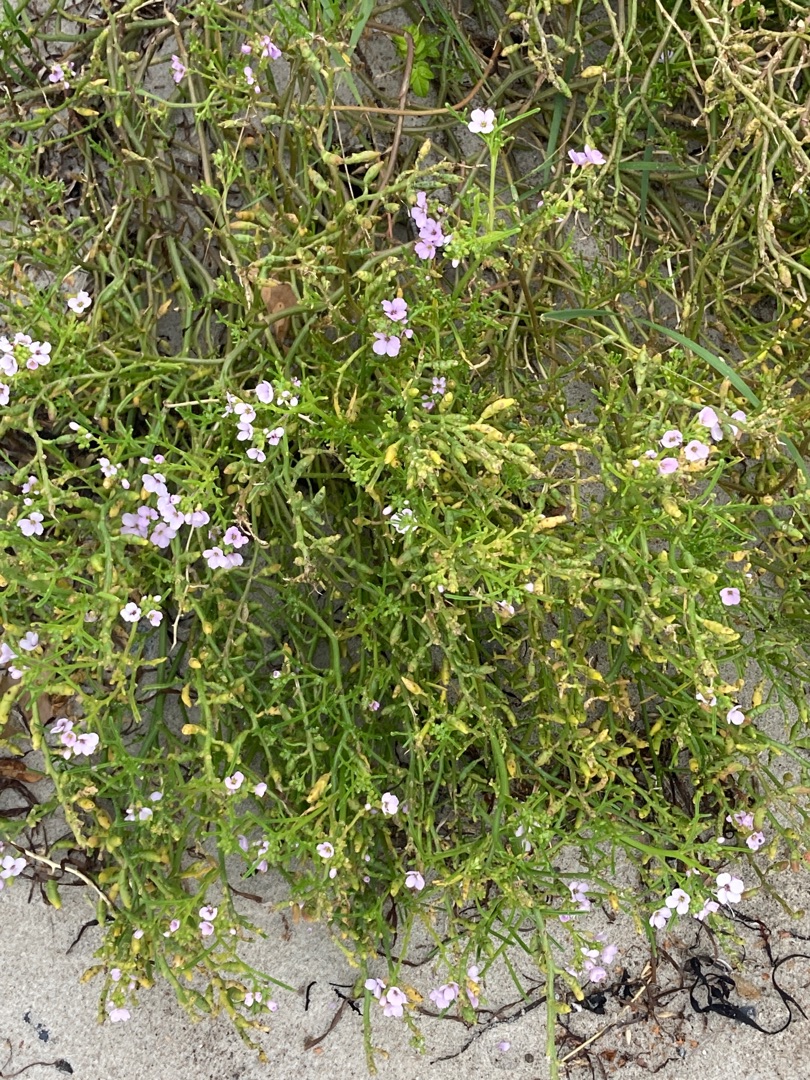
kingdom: Plantae
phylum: Tracheophyta
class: Magnoliopsida
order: Brassicales
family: Brassicaceae
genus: Cakile
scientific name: Cakile maritima
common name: Strandsennep
